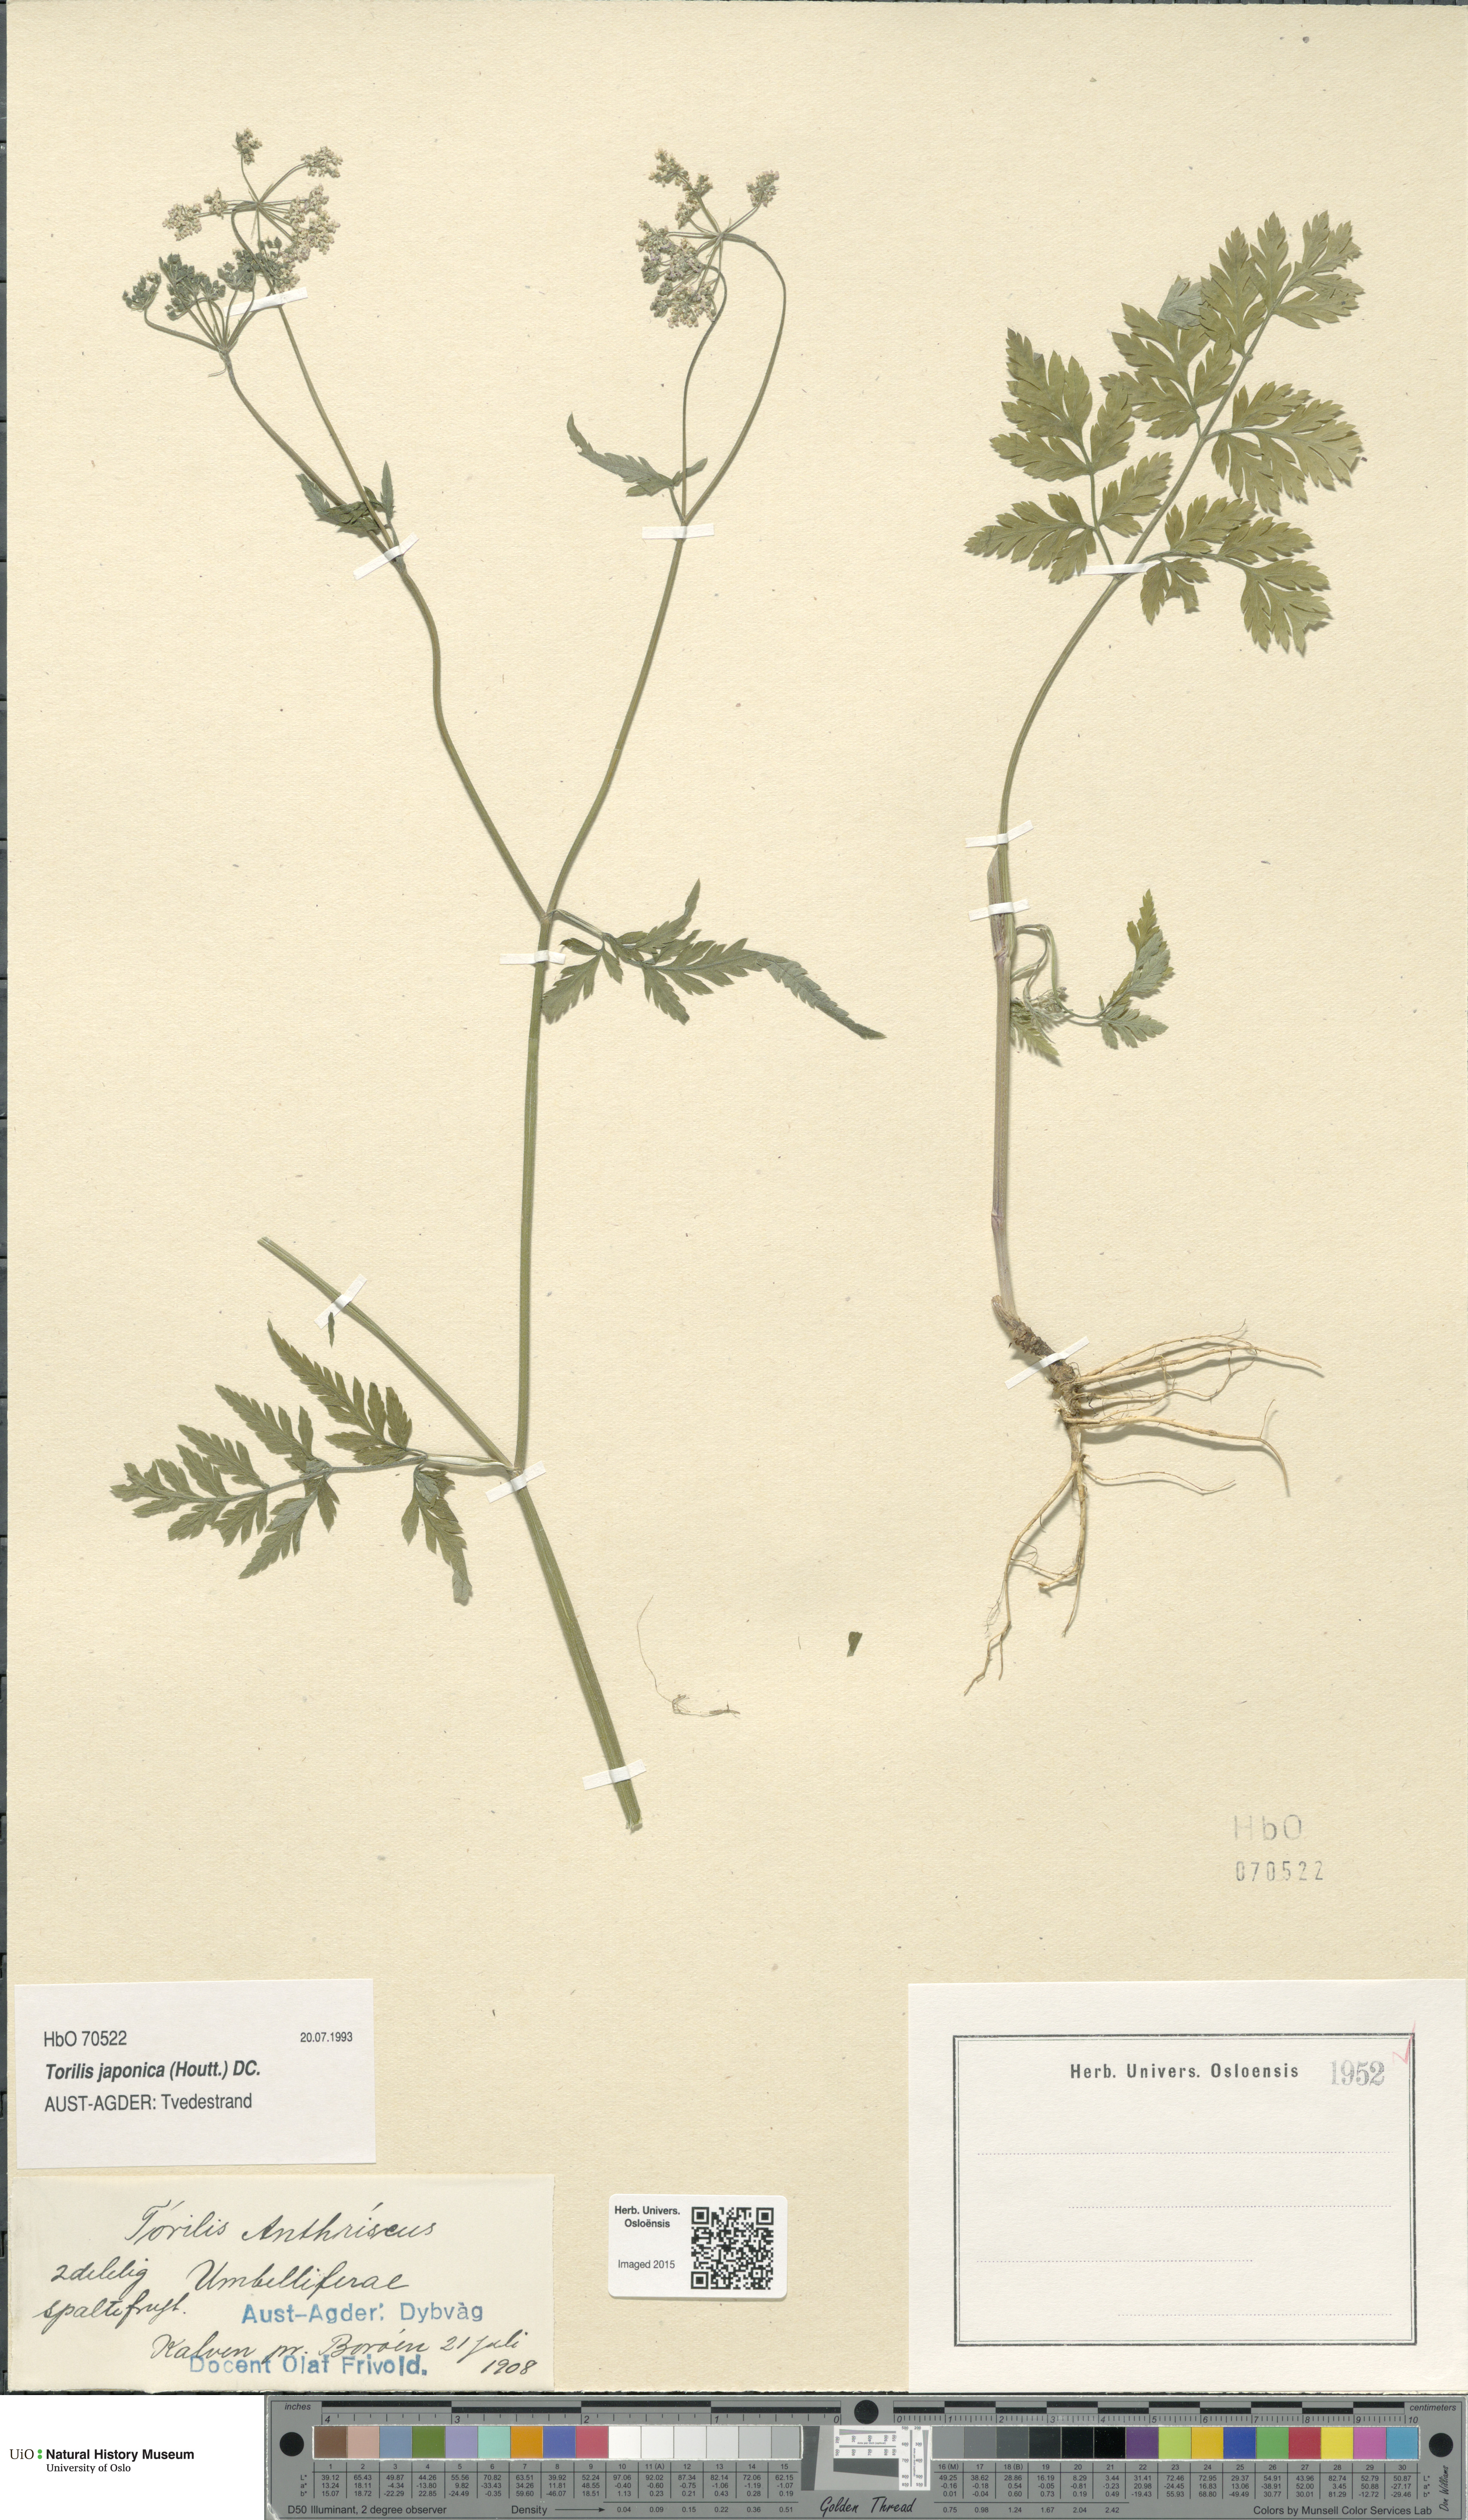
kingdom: Plantae
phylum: Tracheophyta
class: Magnoliopsida
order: Apiales
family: Apiaceae
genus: Torilis
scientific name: Torilis japonica
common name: Upright hedge-parsley
